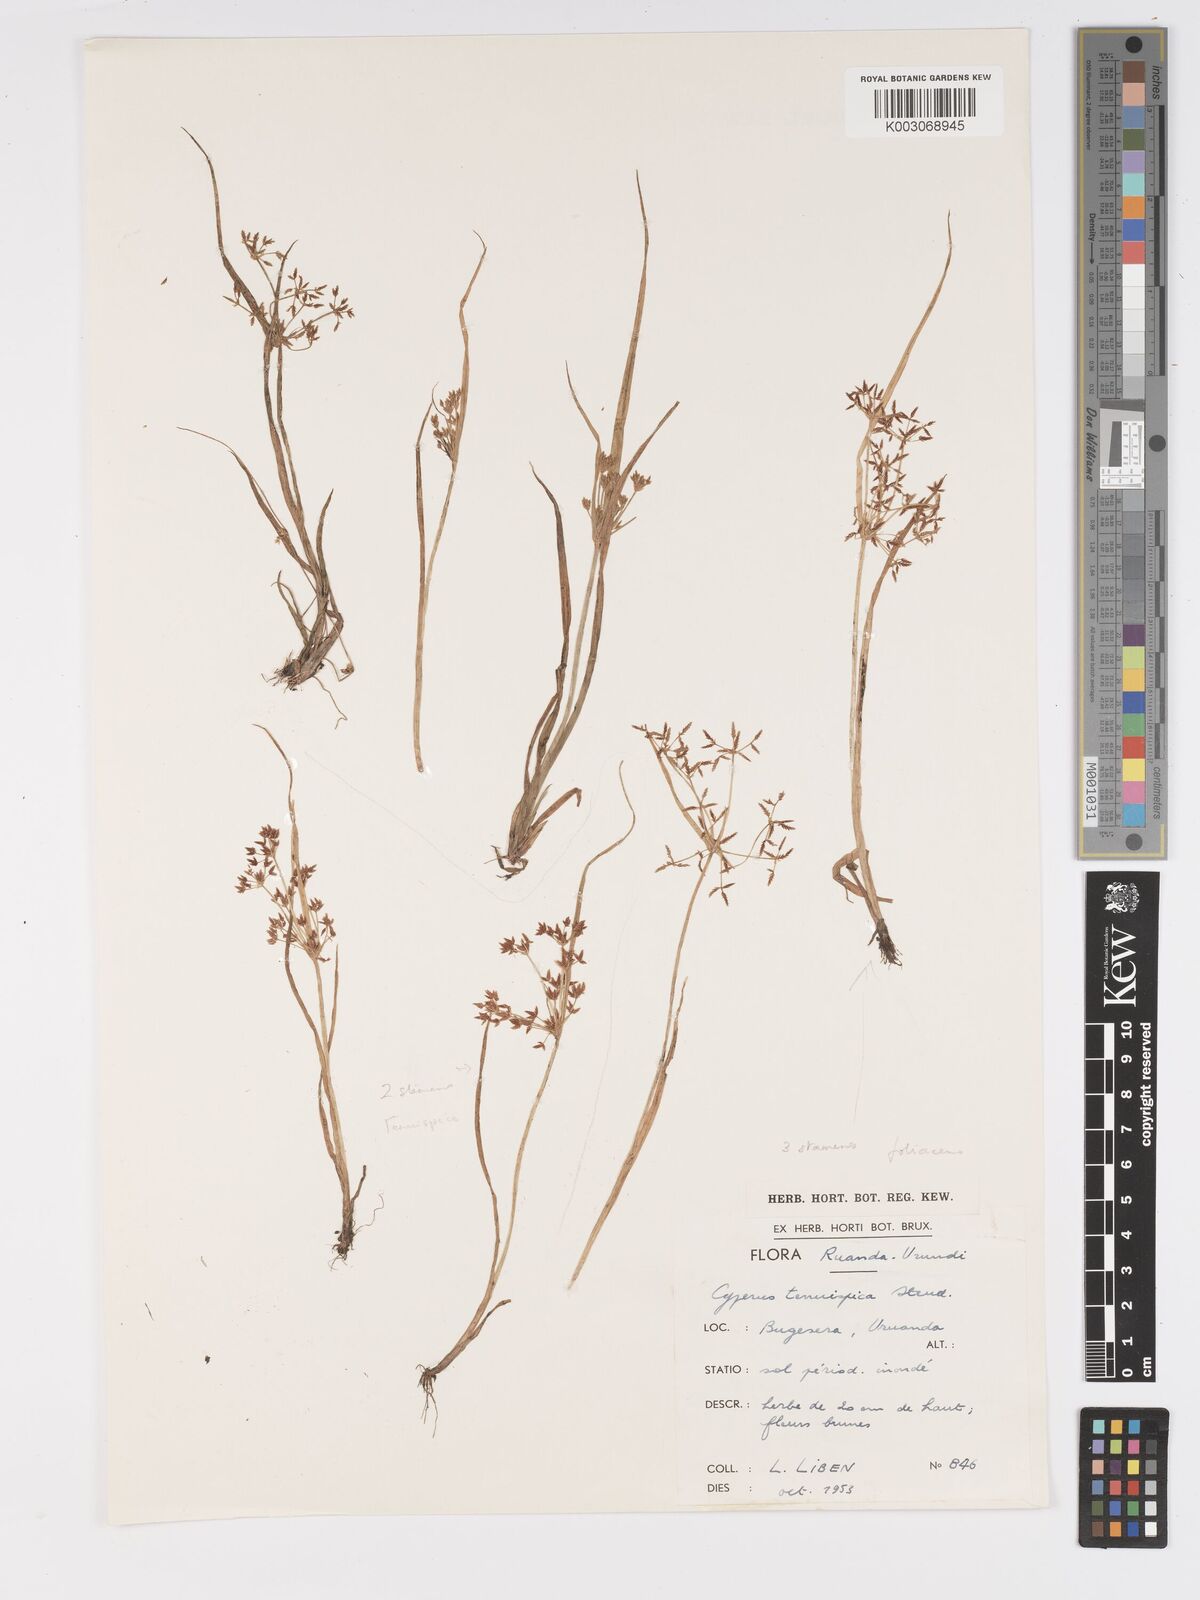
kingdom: Plantae
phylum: Tracheophyta
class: Liliopsida
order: Poales
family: Cyperaceae
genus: Cyperus
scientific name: Cyperus tenuispica
